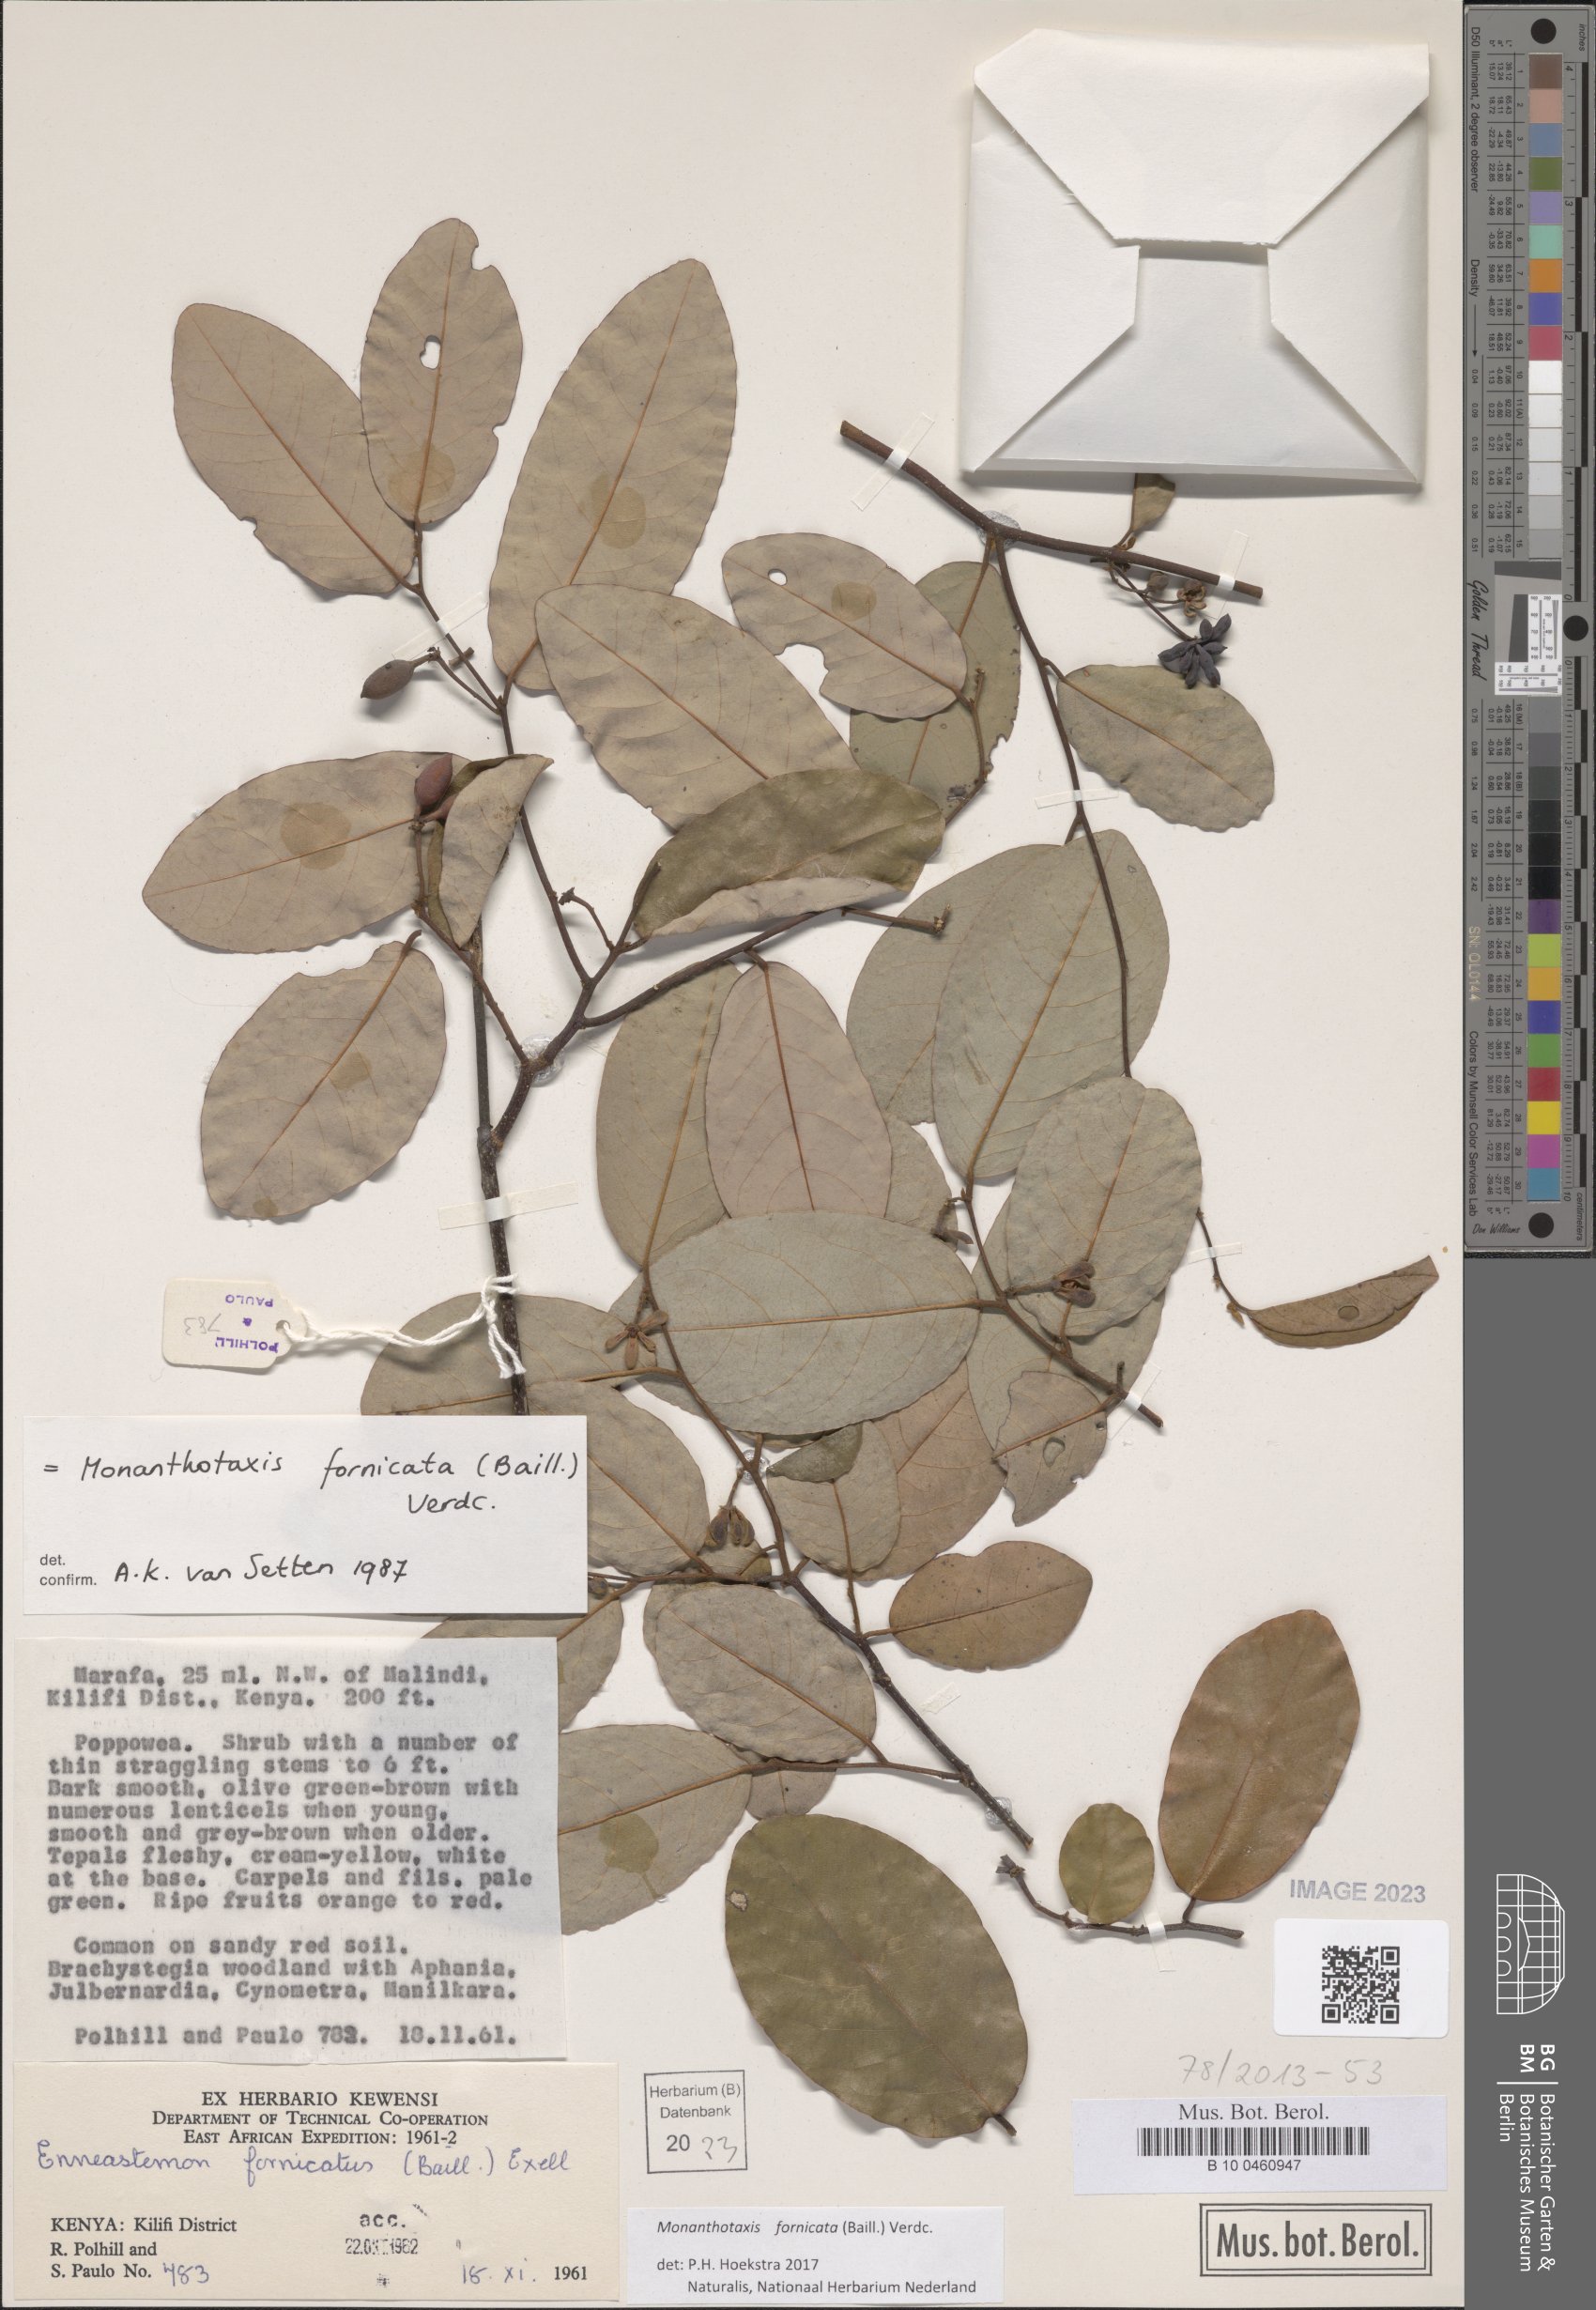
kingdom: Plantae
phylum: Tracheophyta
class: Magnoliopsida
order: Magnoliales
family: Annonaceae
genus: Monanthotaxis
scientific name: Monanthotaxis fornicata
